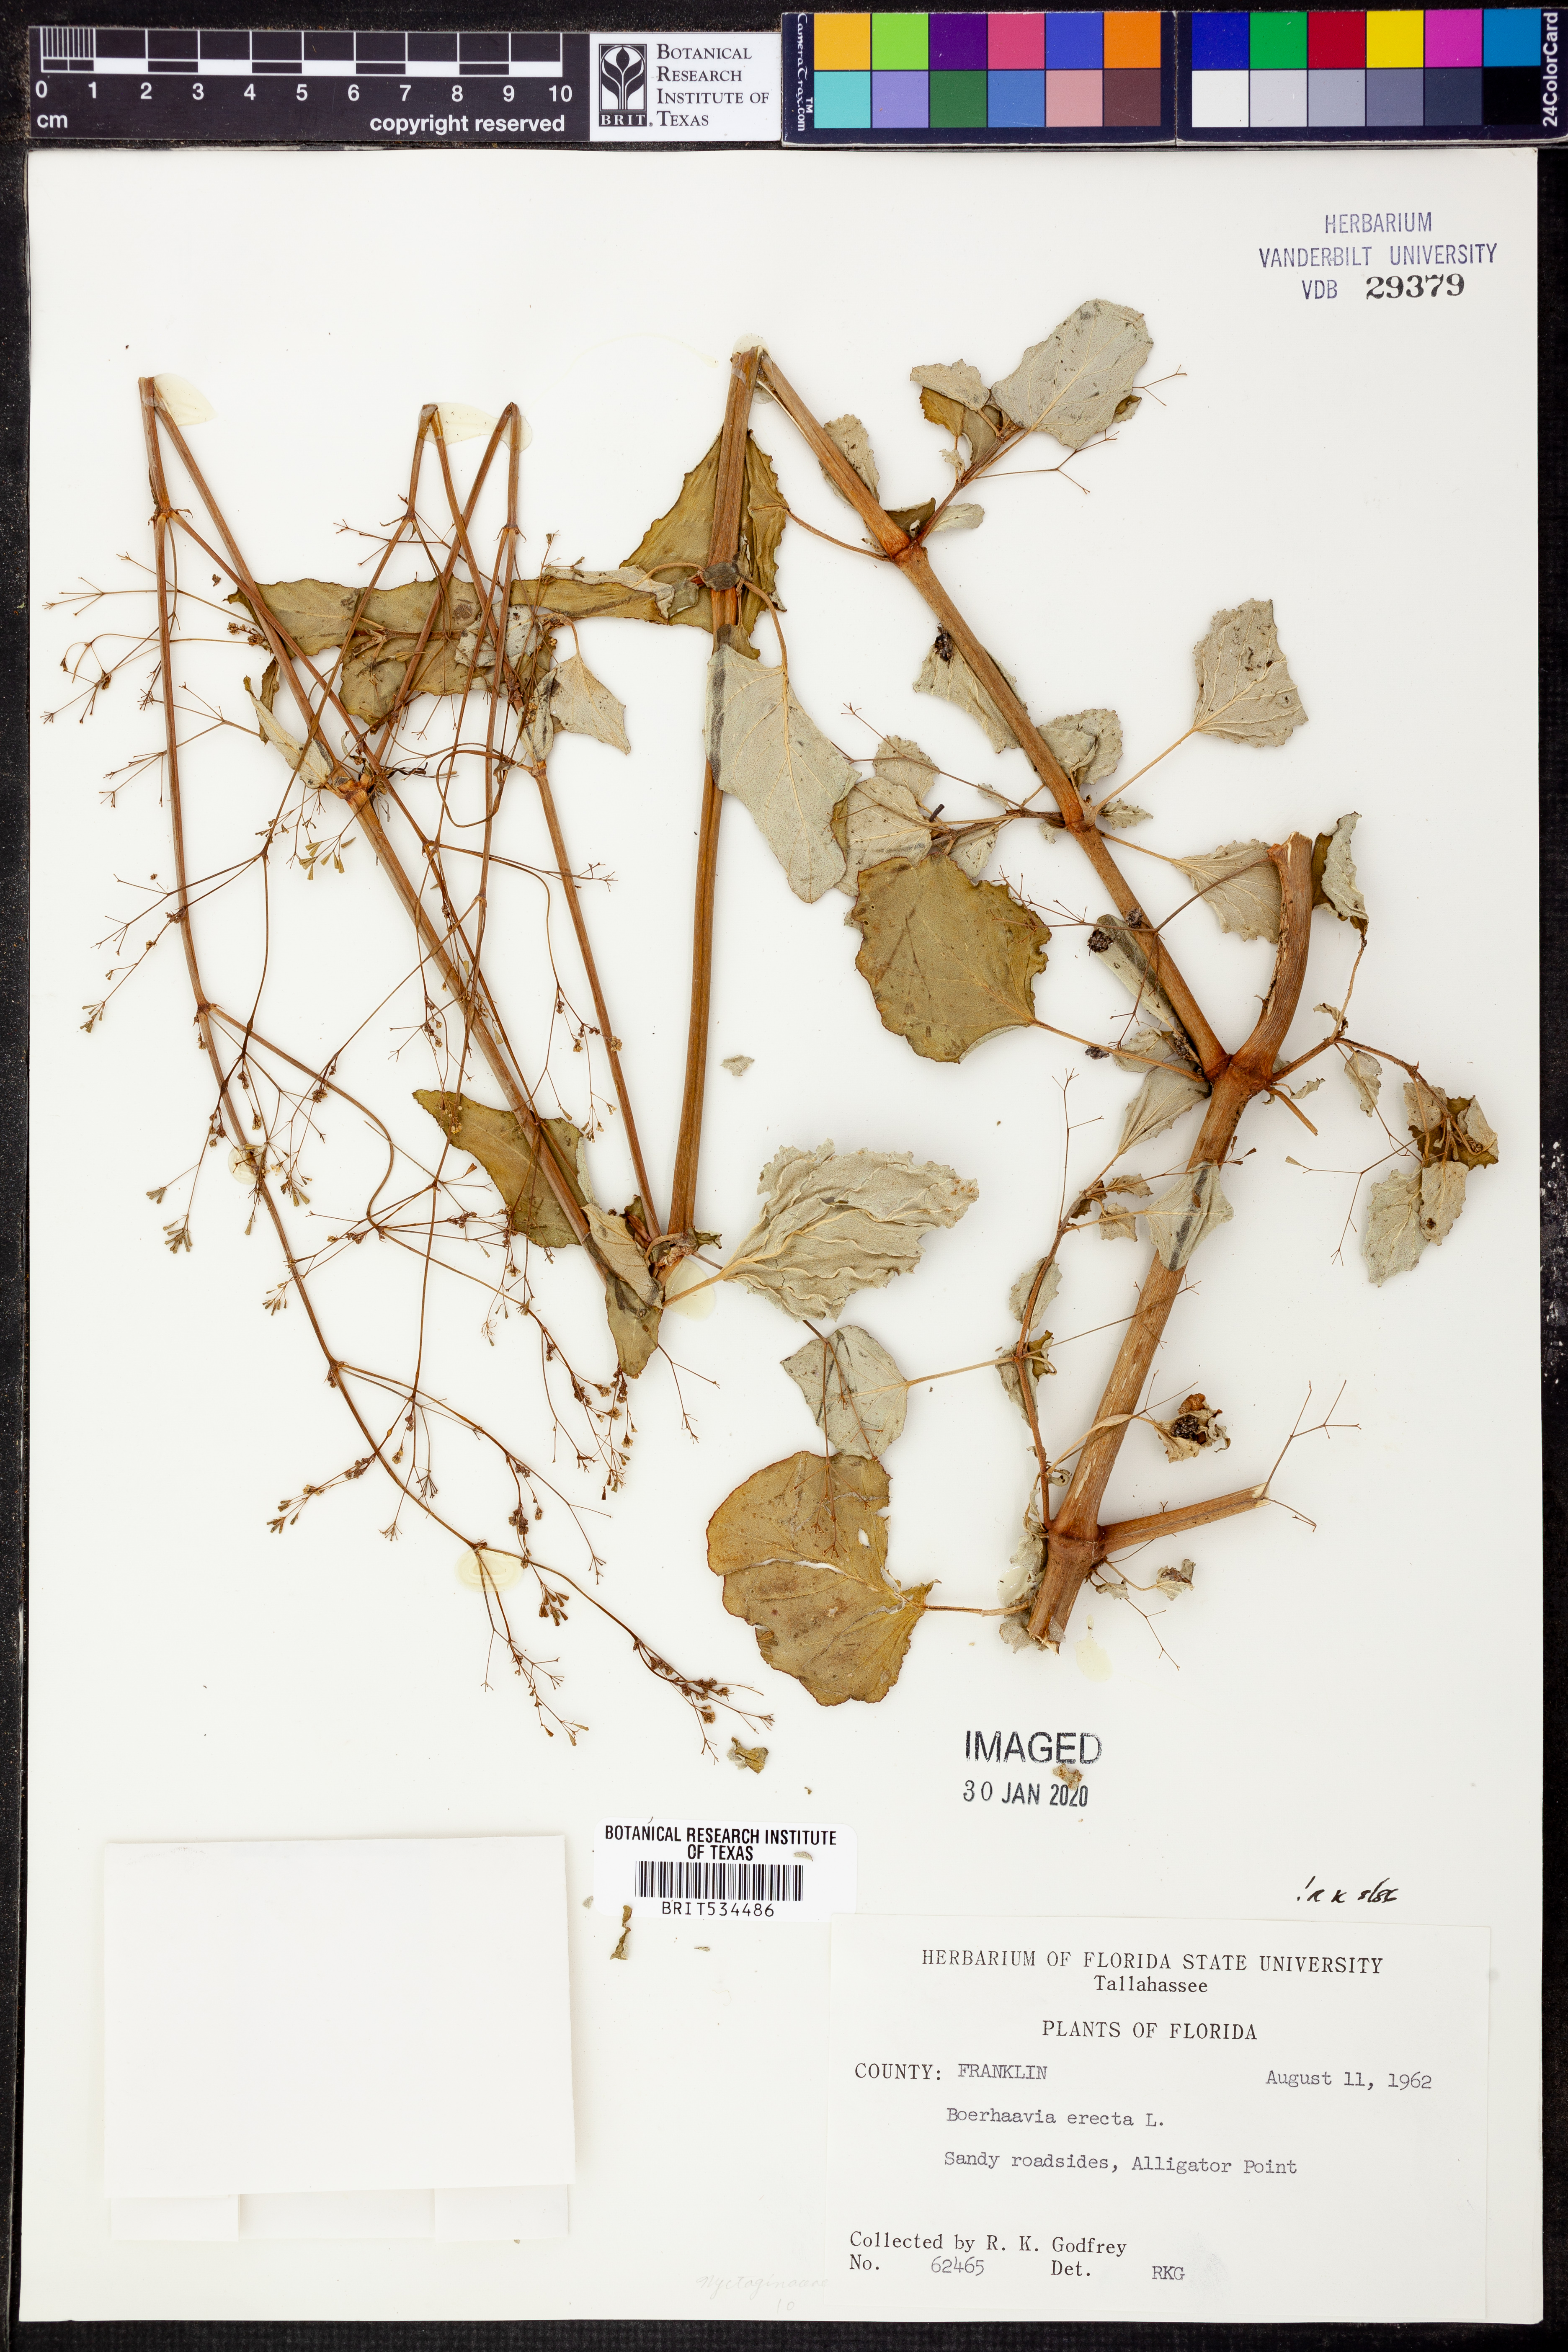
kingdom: Plantae
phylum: Tracheophyta
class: Magnoliopsida
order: Caryophyllales
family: Nyctaginaceae
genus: Boerhavia
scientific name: Boerhavia erecta
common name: Erect spiderling
